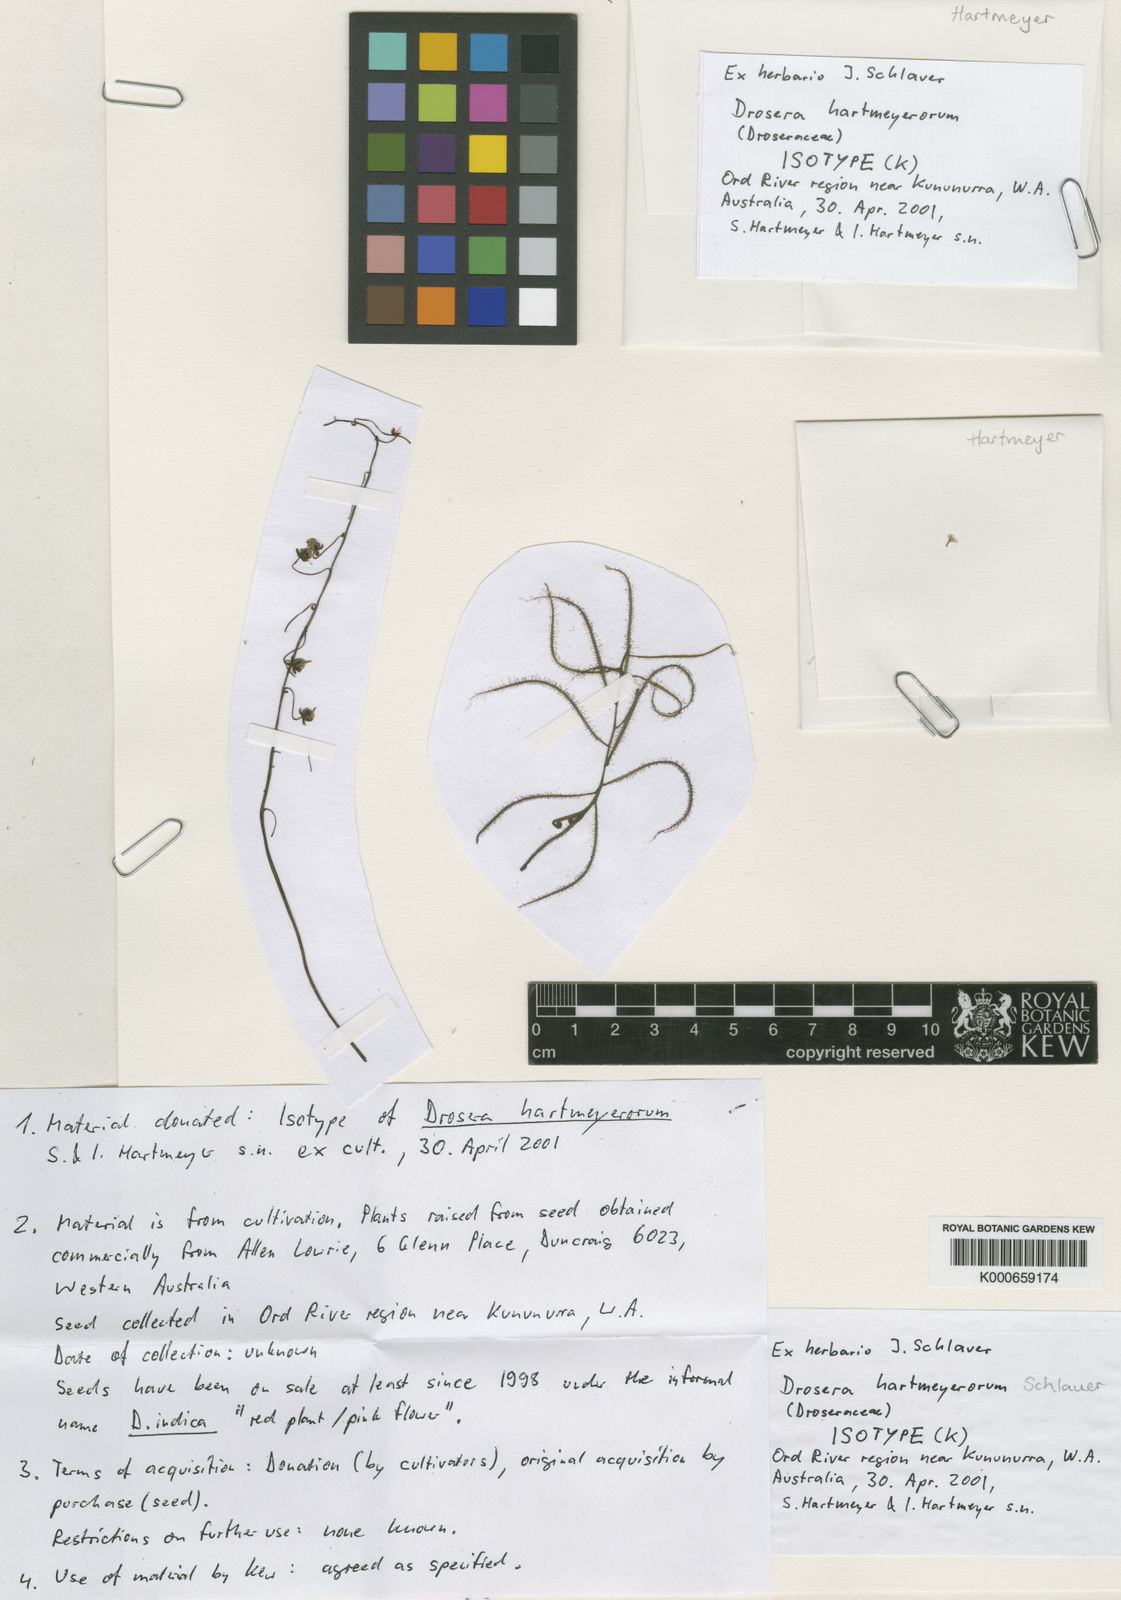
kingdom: Plantae
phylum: Tracheophyta
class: Magnoliopsida
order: Caryophyllales
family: Droseraceae
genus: Drosera
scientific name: Drosera hartmeyerorum
